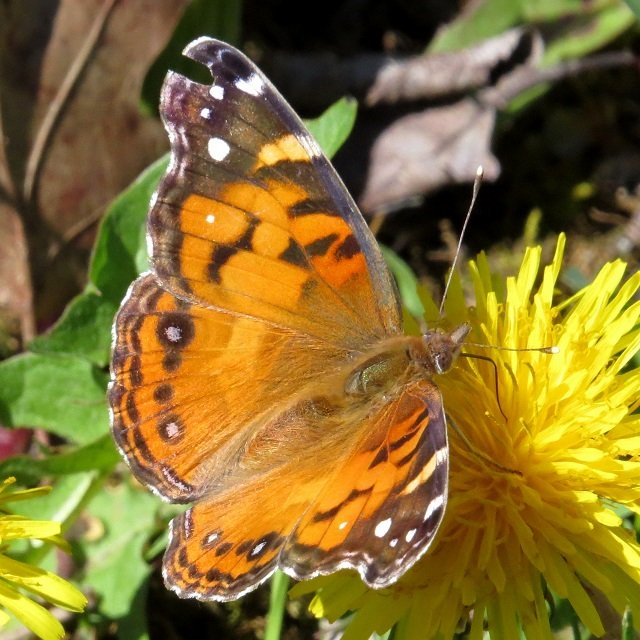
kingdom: Animalia
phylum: Arthropoda
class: Insecta
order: Lepidoptera
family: Nymphalidae
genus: Vanessa
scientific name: Vanessa virginiensis
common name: American Lady
